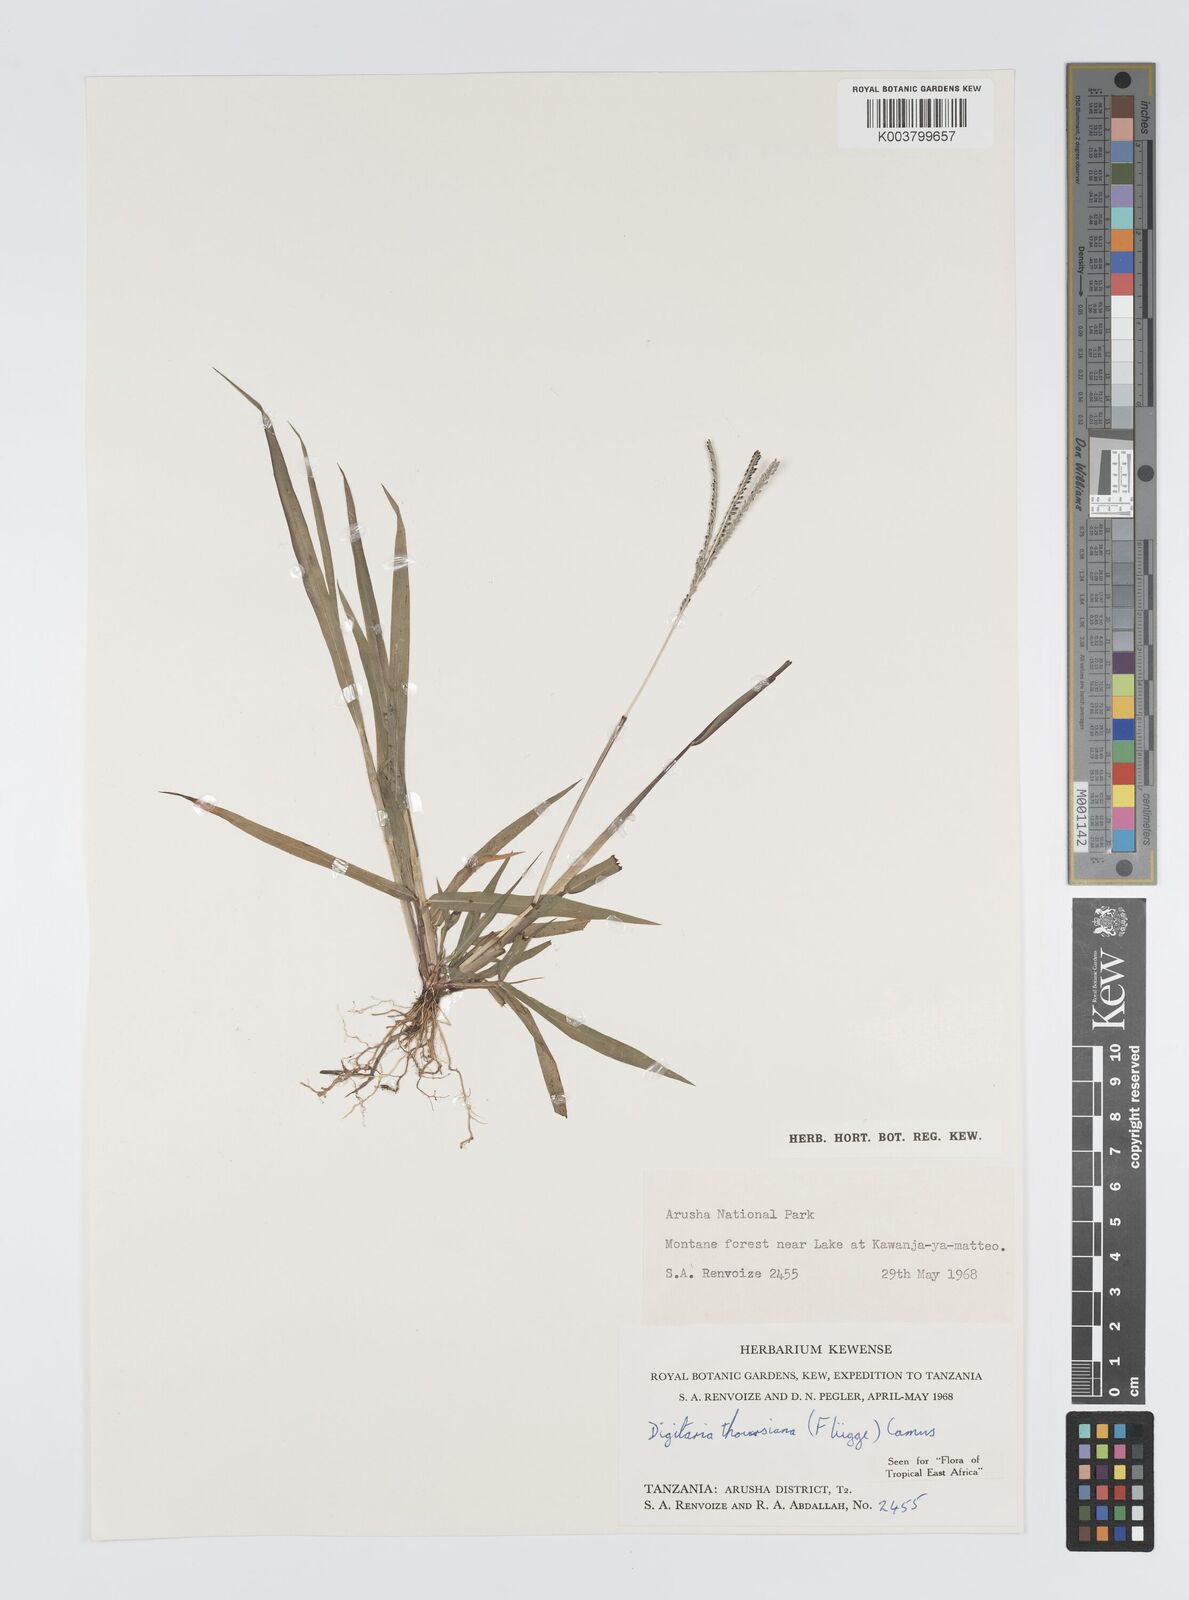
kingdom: Plantae
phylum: Tracheophyta
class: Liliopsida
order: Poales
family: Poaceae
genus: Digitaria
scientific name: Digitaria thouarsiana
